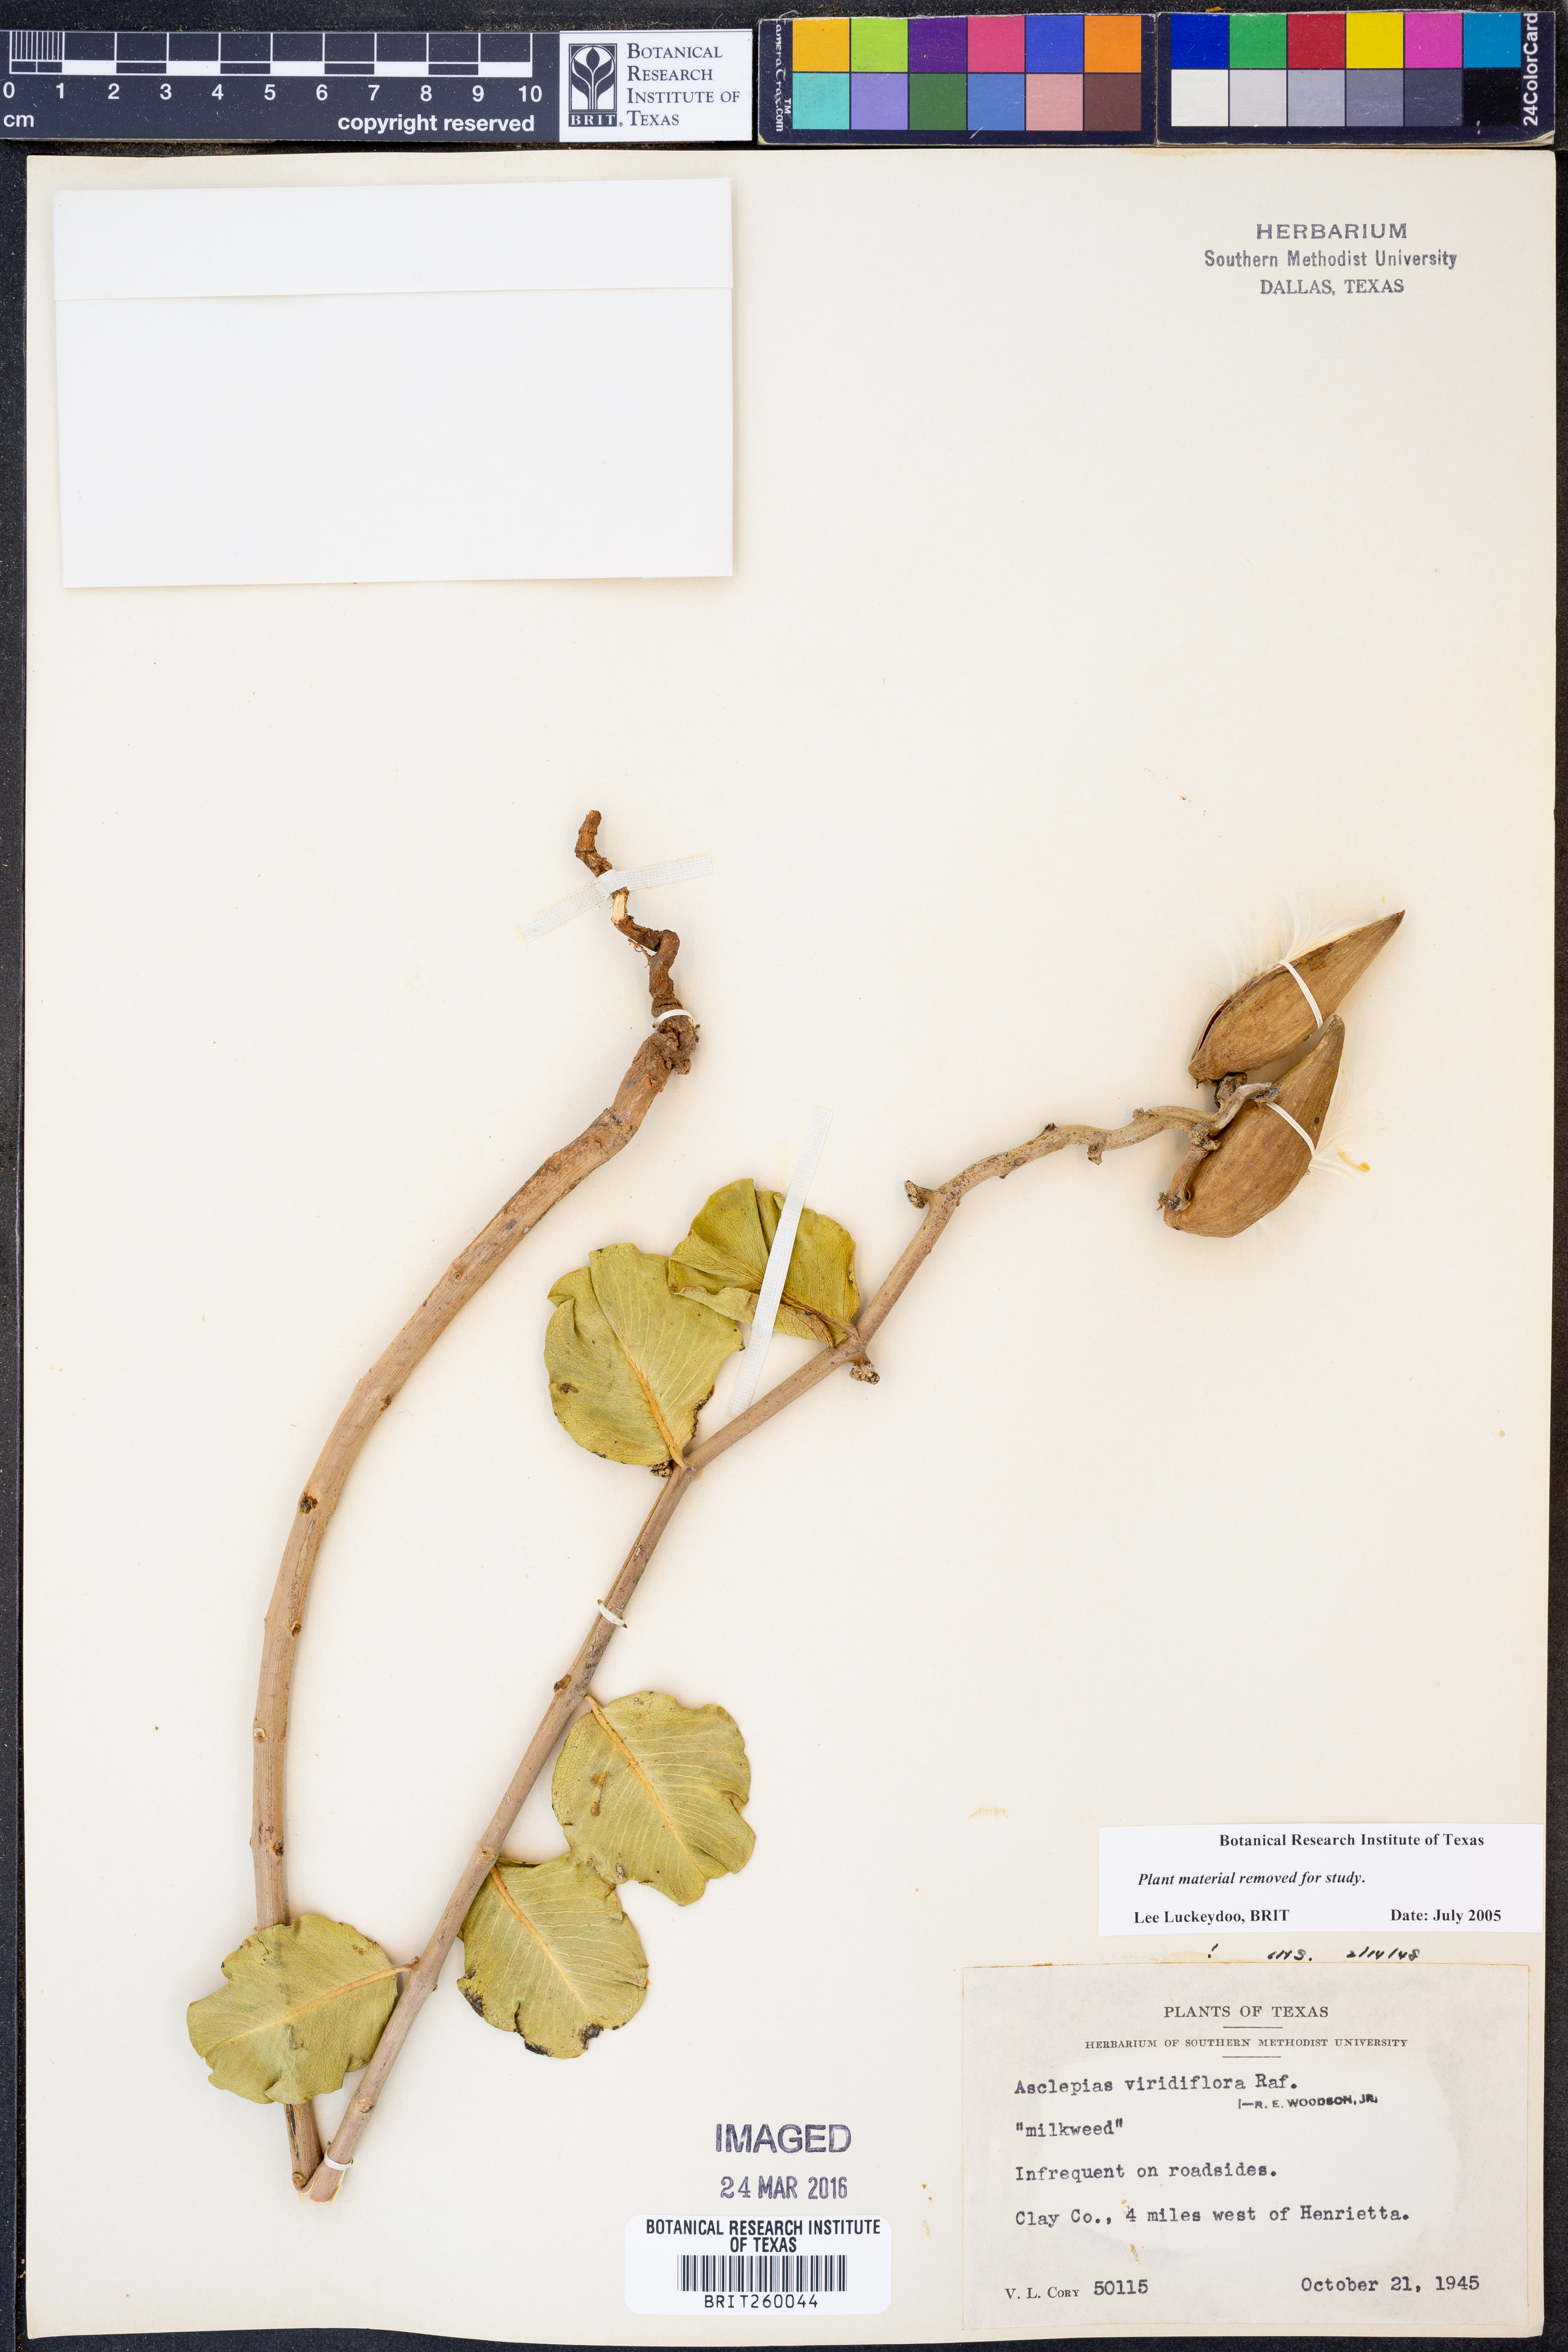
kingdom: Plantae
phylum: Tracheophyta
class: Magnoliopsida
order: Gentianales
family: Apocynaceae
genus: Asclepias
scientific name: Asclepias viridiflora
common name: Green comet milkweed
